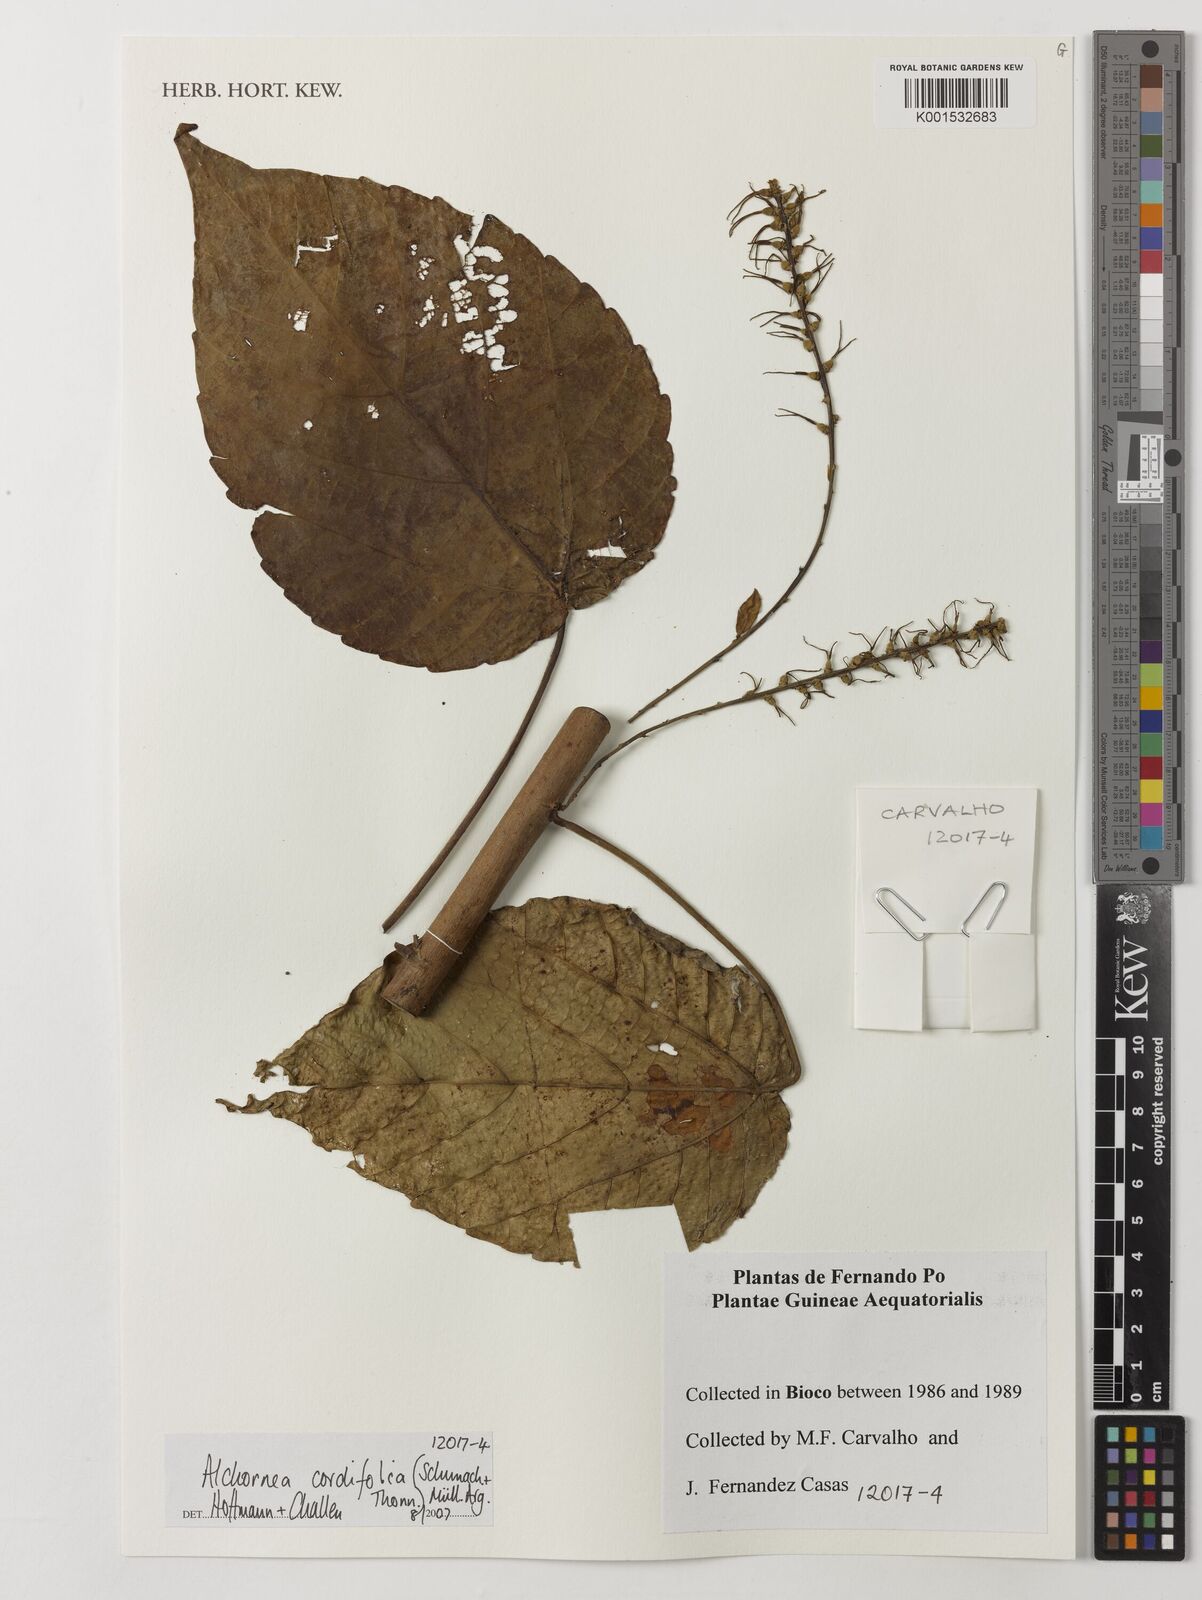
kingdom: Plantae
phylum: Tracheophyta
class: Magnoliopsida
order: Malpighiales
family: Euphorbiaceae
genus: Alchornea
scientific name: Alchornea cordifolia
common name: Christmasbush
